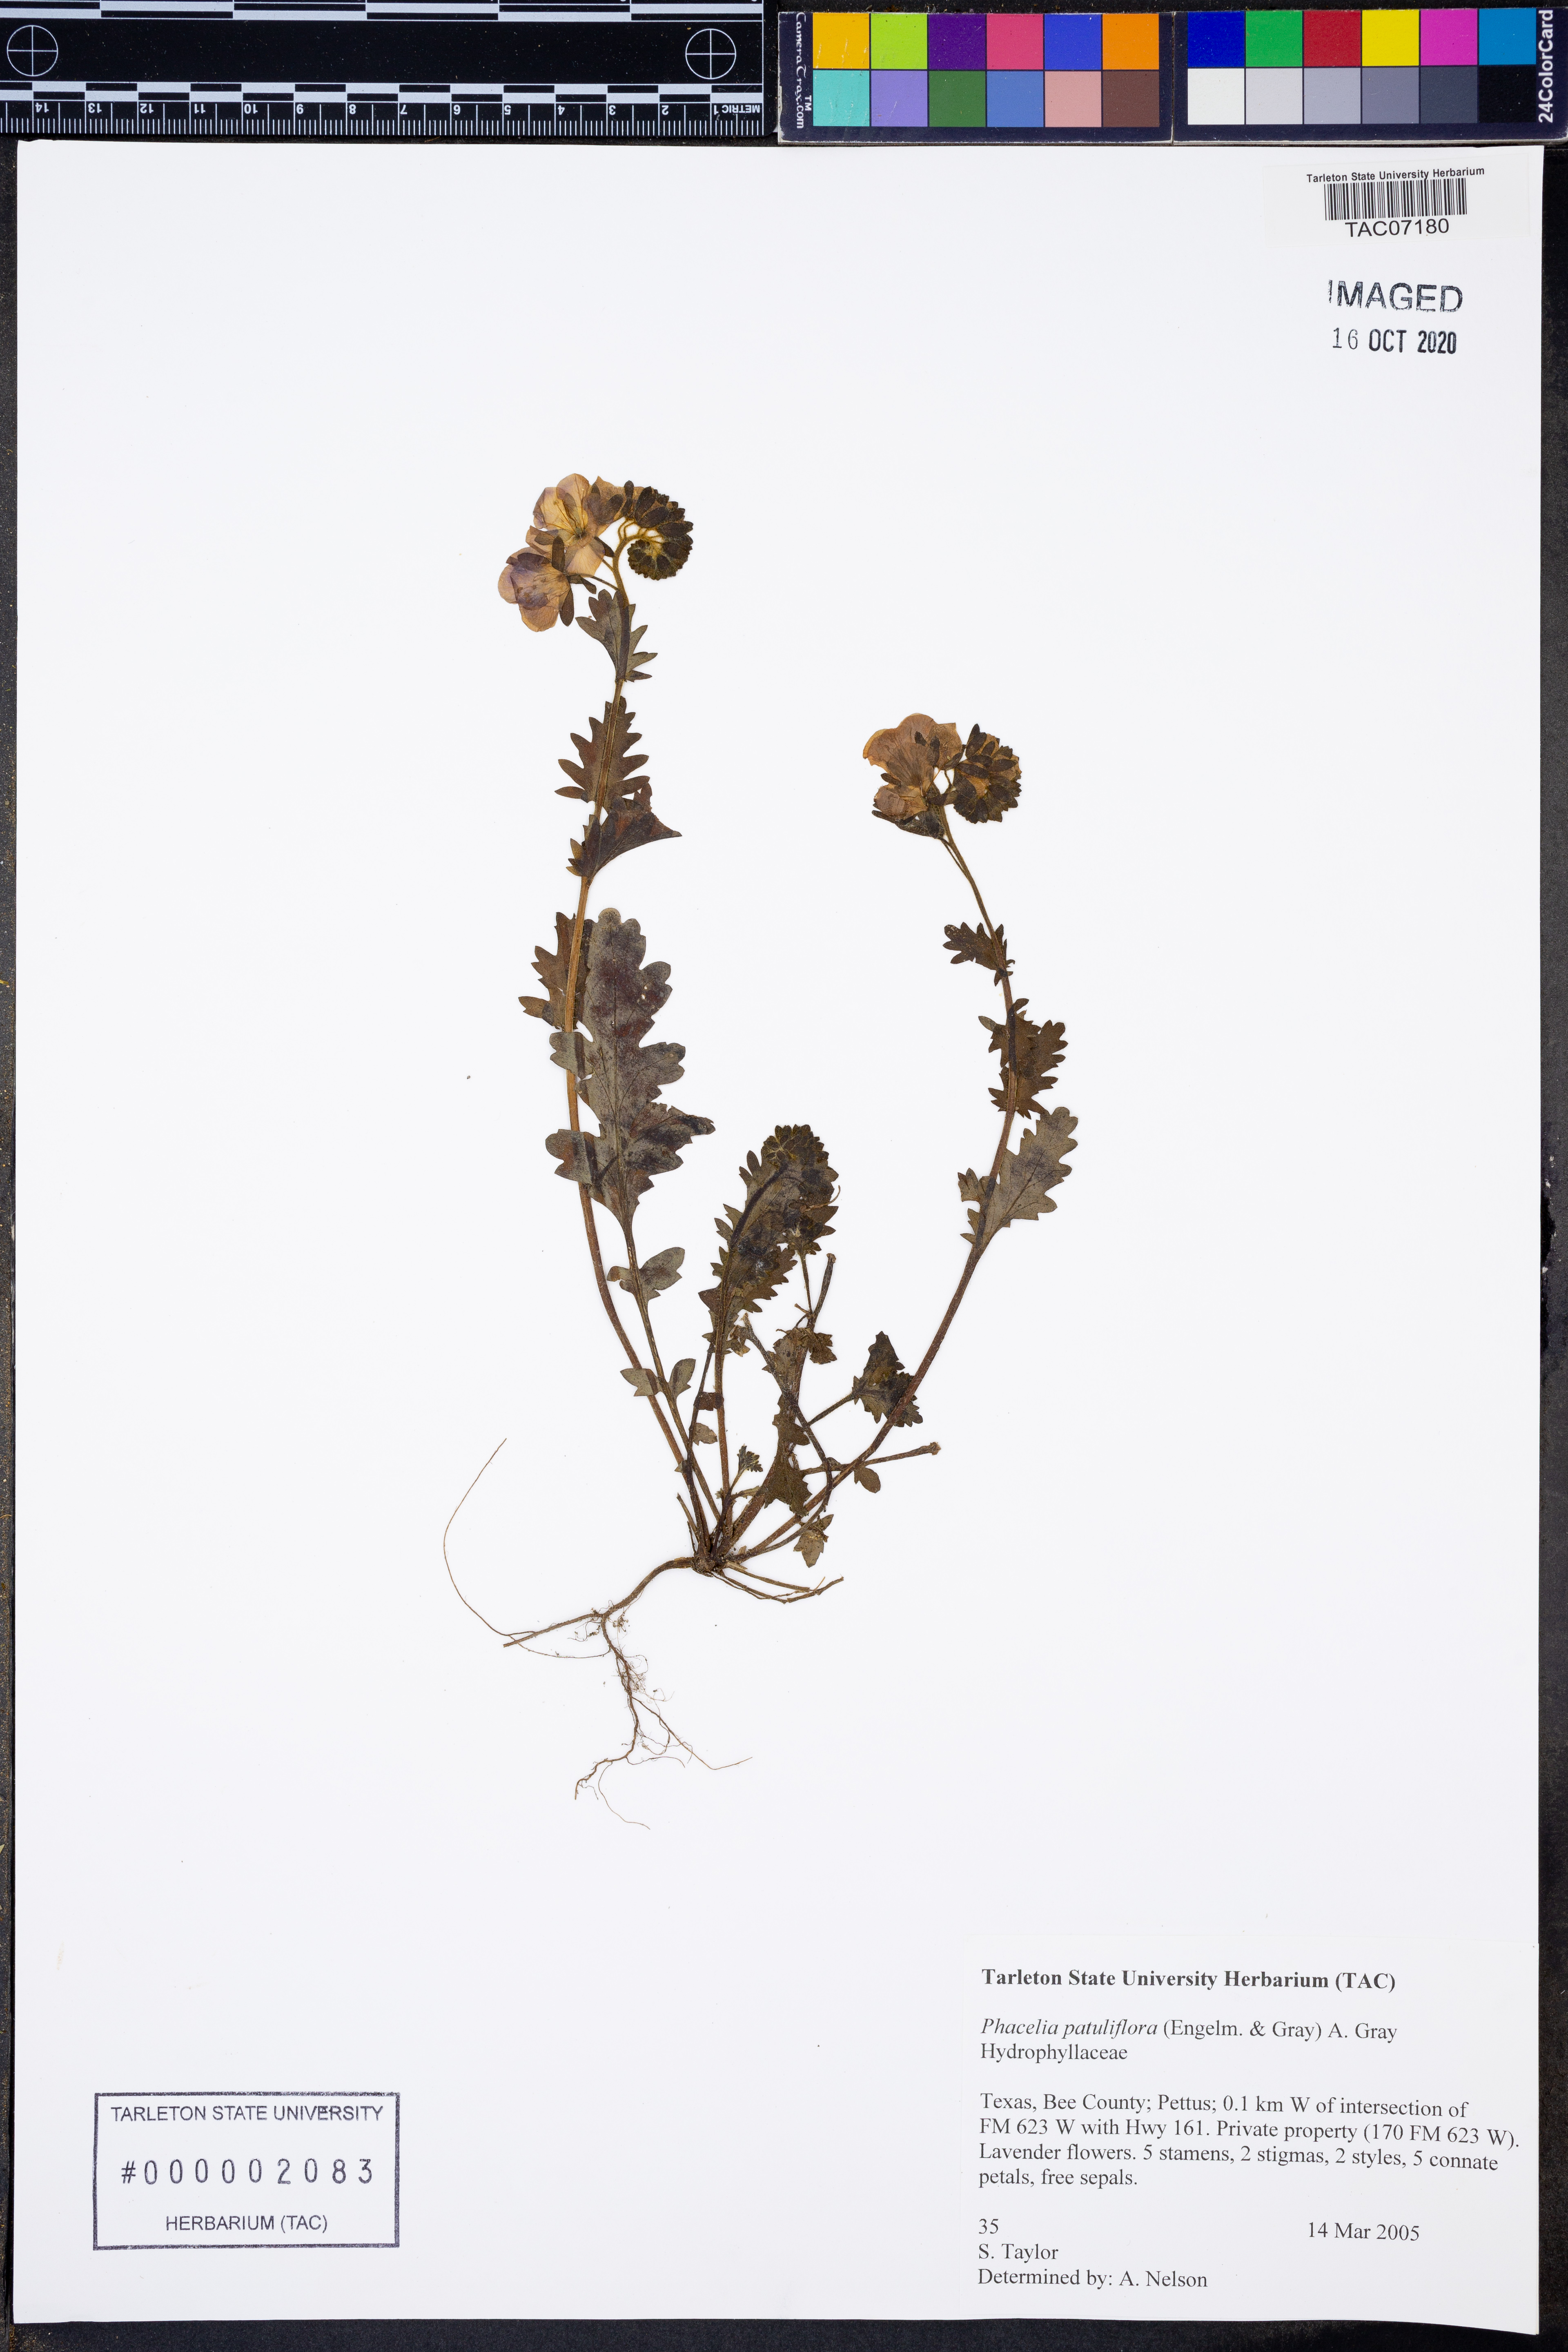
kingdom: Plantae
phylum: Tracheophyta
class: Magnoliopsida
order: Boraginales
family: Hydrophyllaceae
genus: Phacelia
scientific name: Phacelia patuliflora
